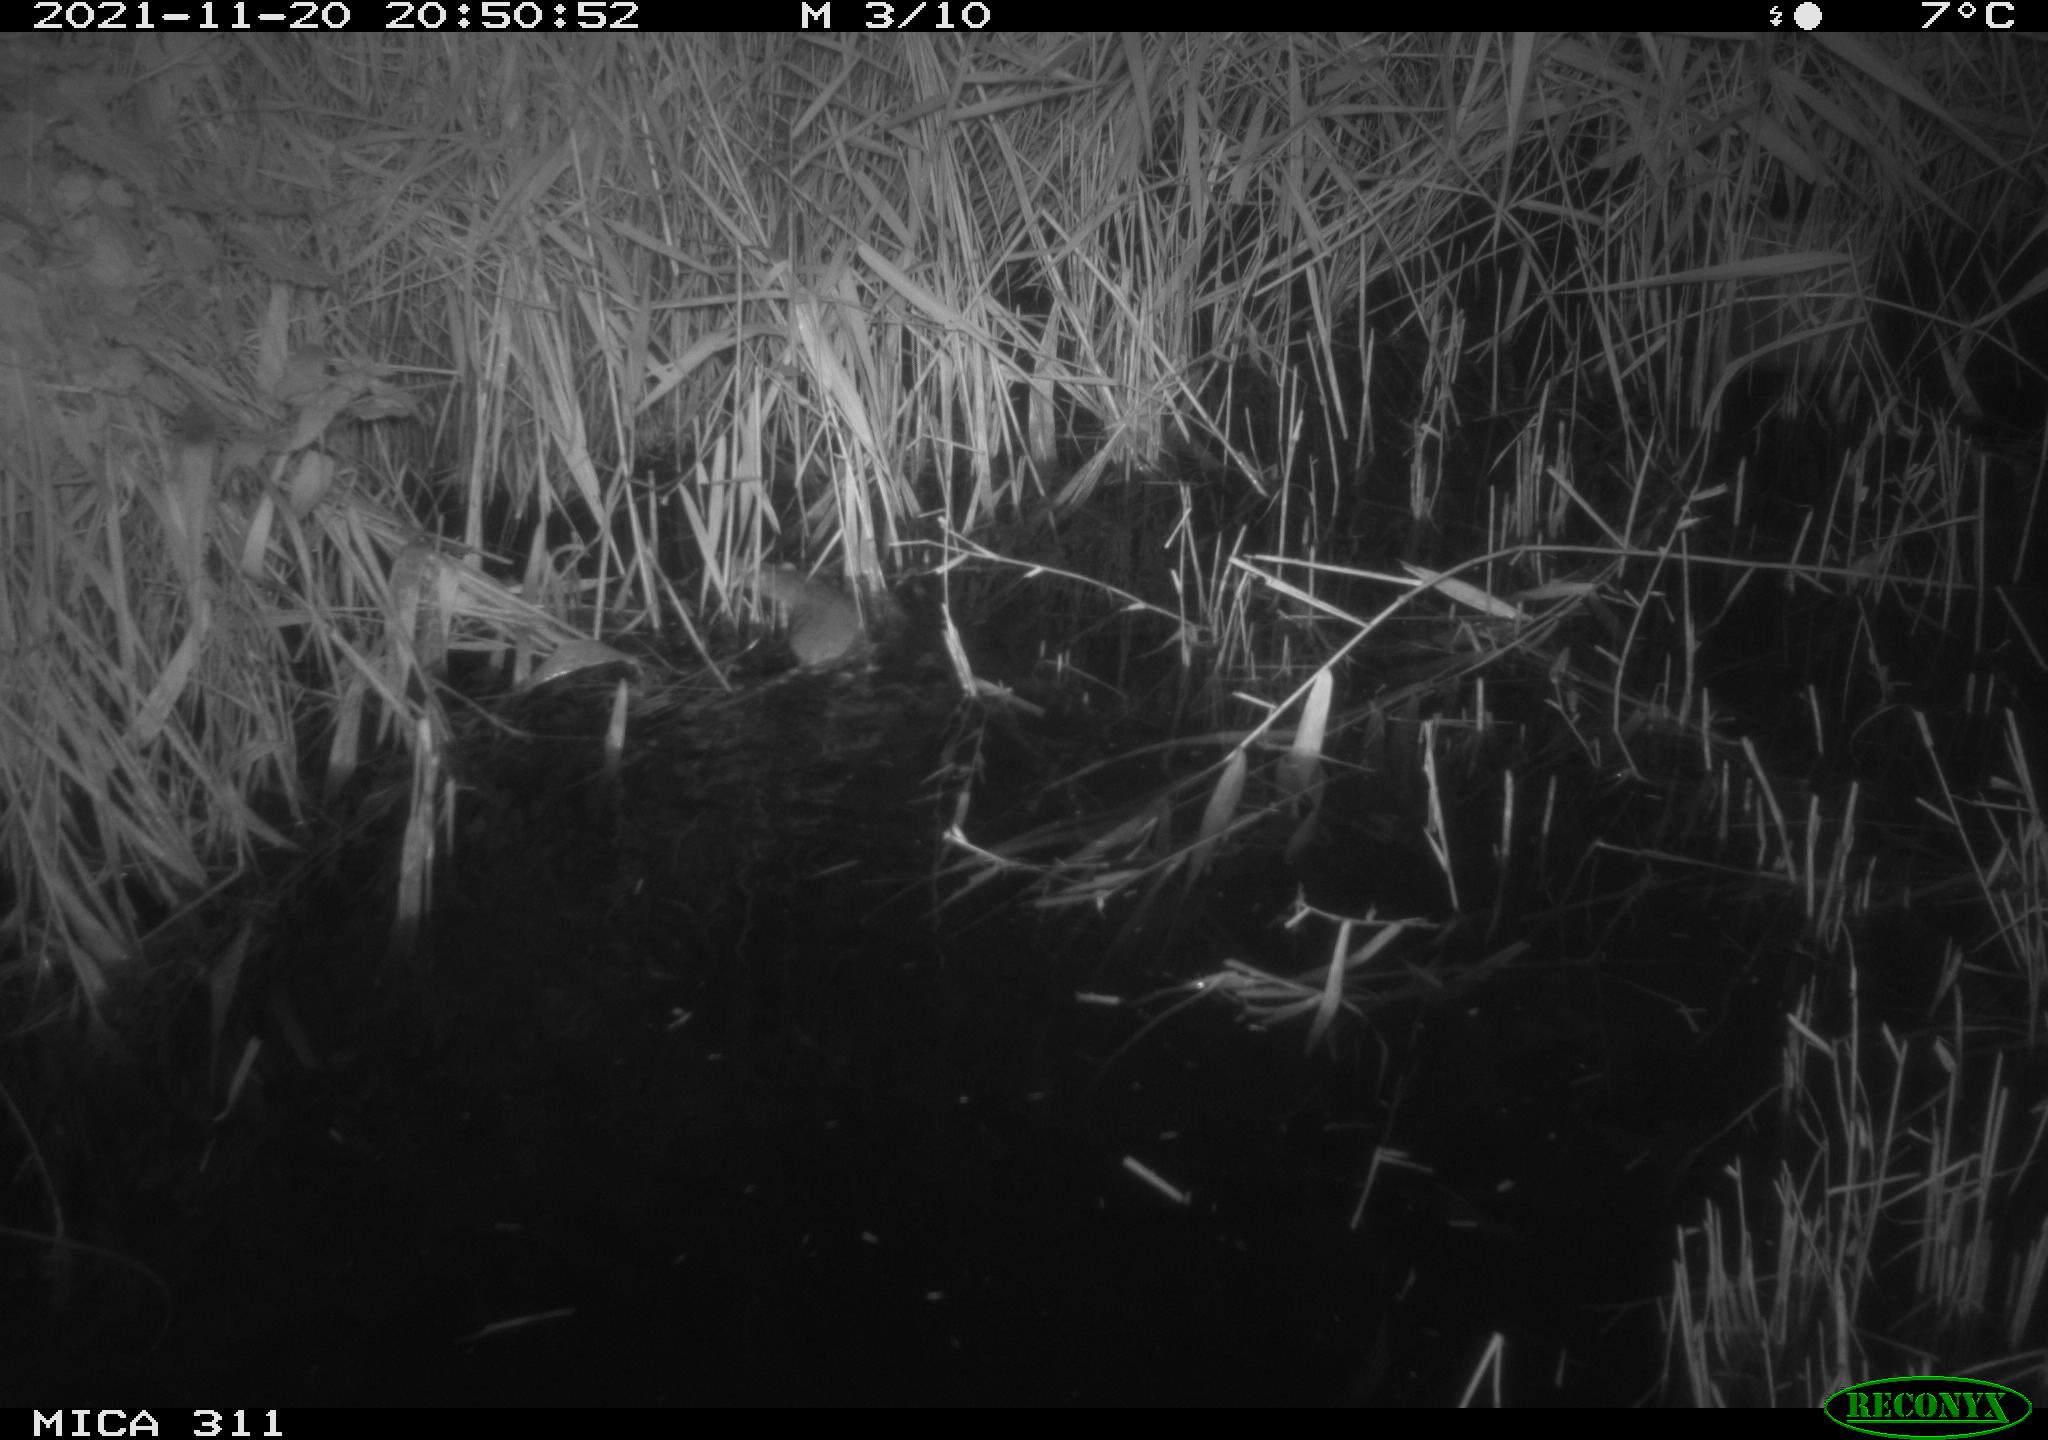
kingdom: Animalia
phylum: Chordata
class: Mammalia
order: Rodentia
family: Muridae
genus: Rattus
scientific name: Rattus norvegicus
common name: Brown rat
